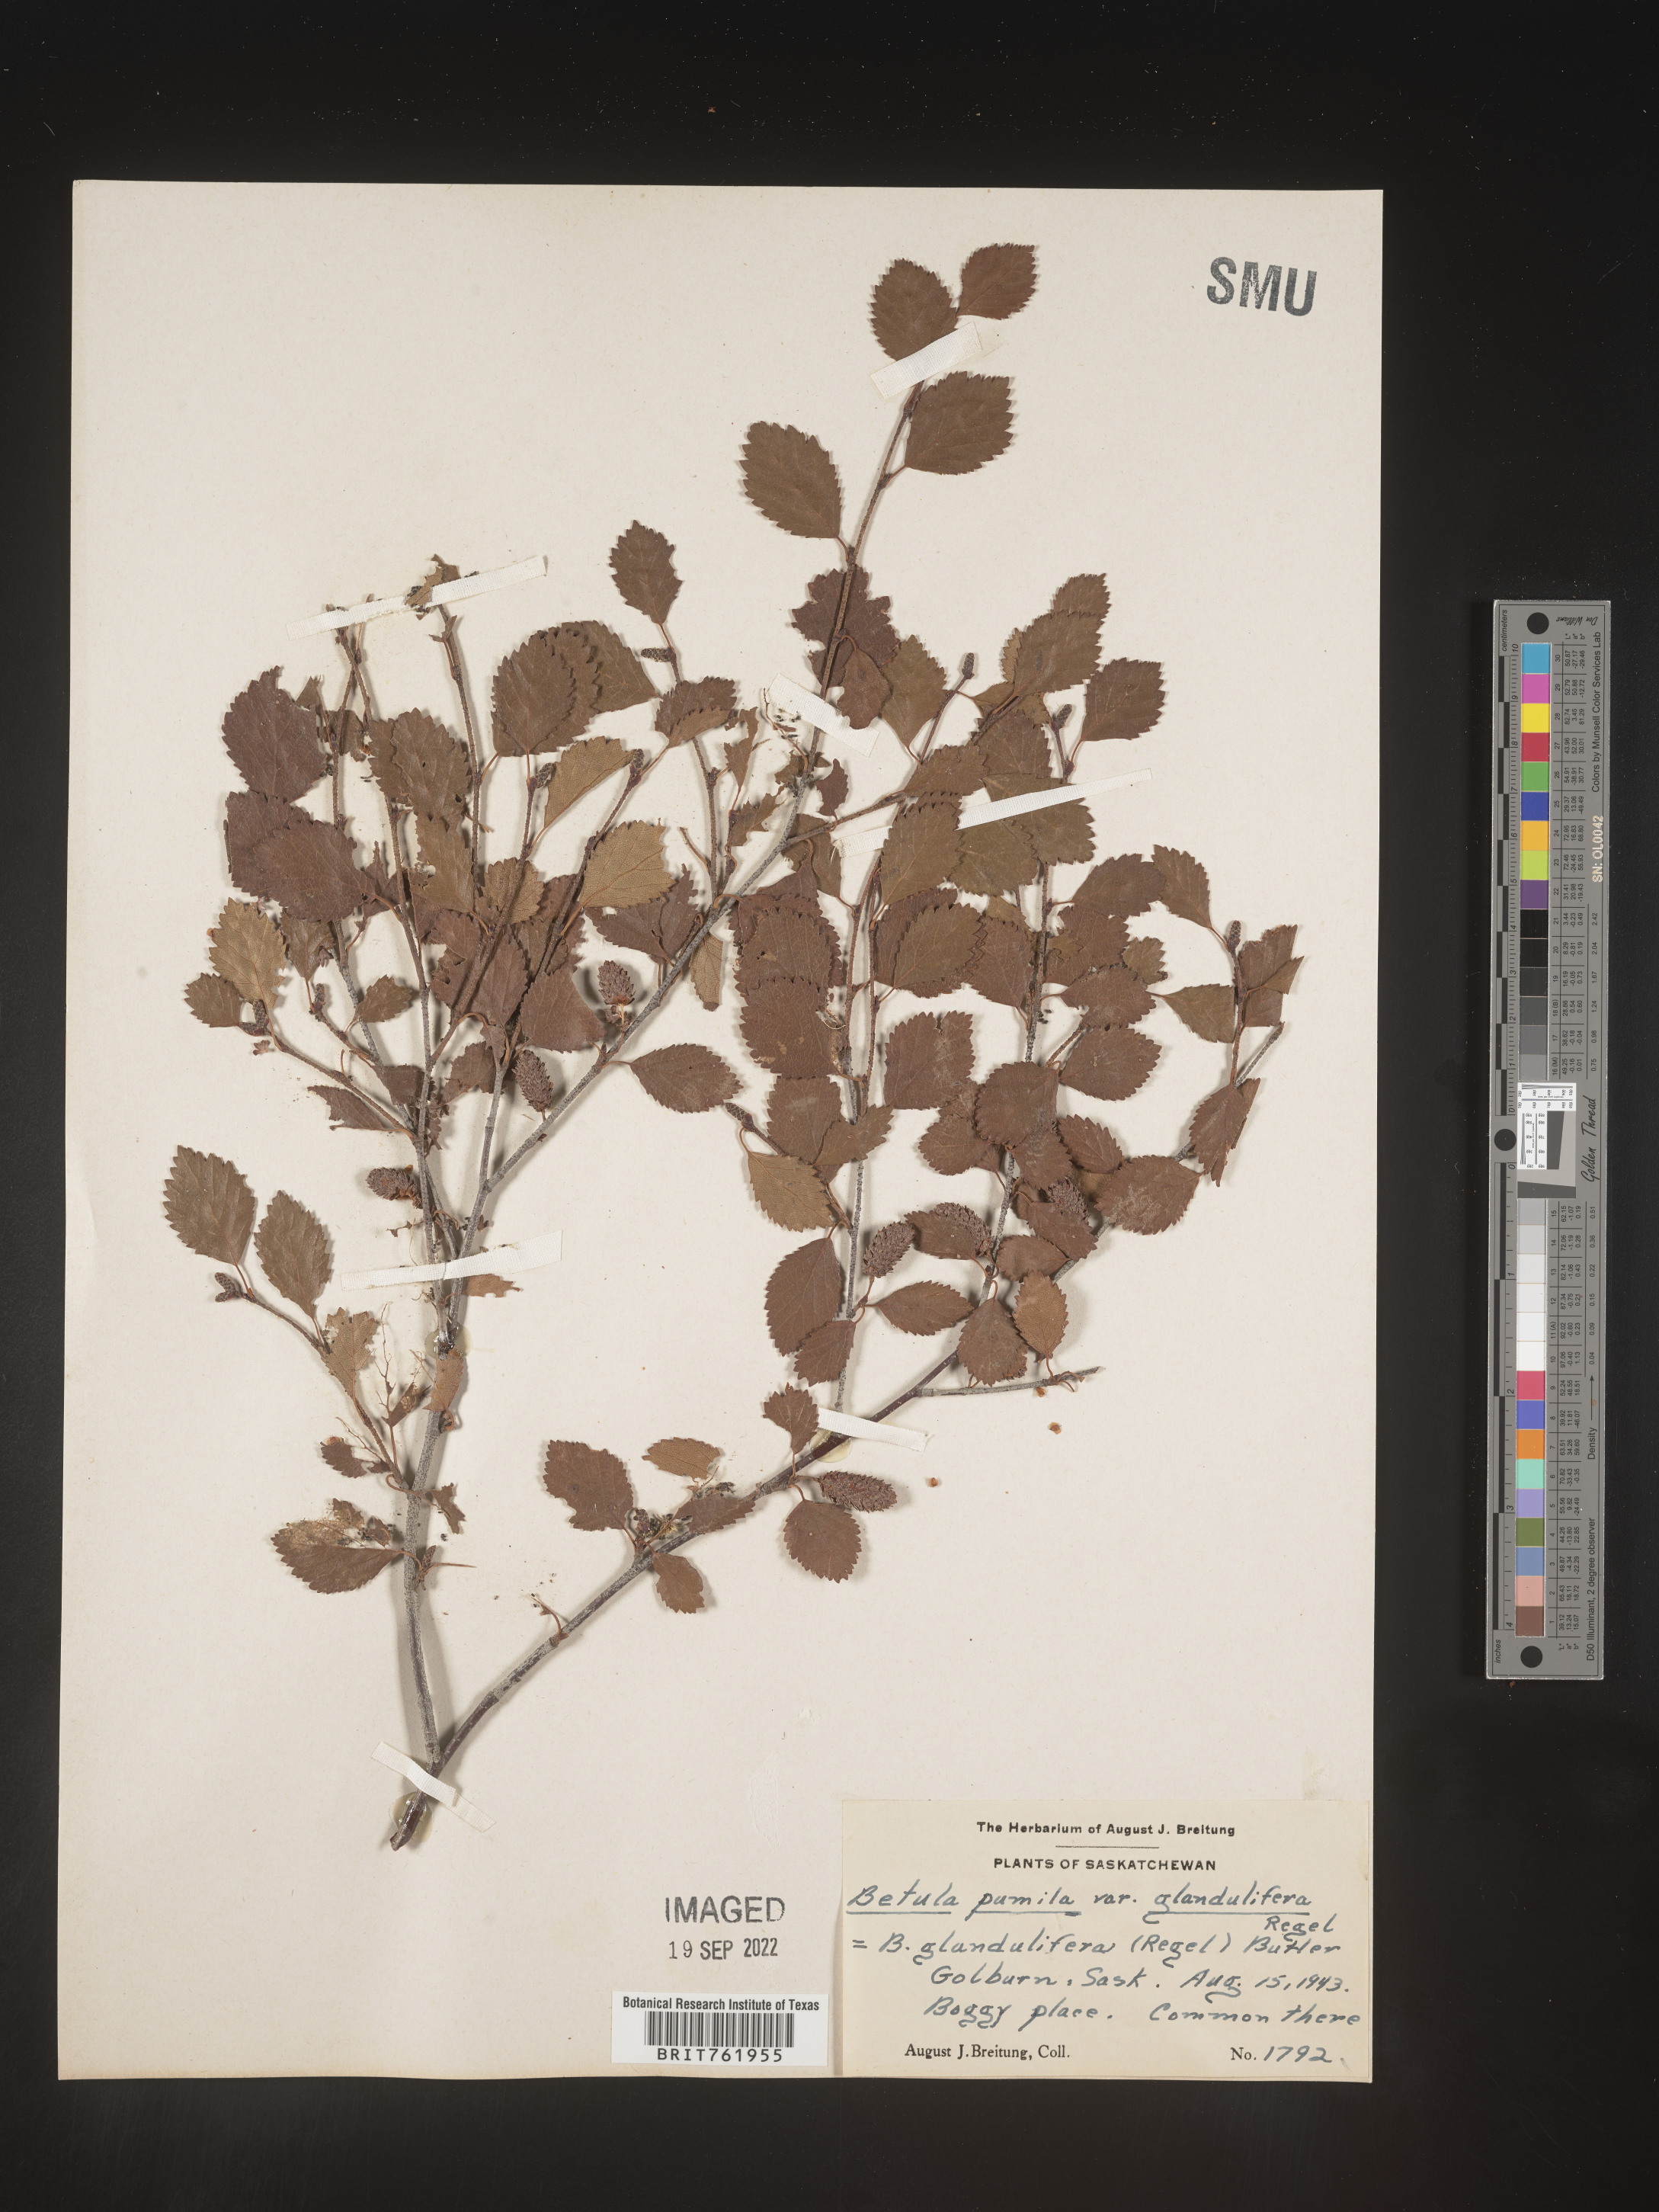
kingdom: Plantae
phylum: Tracheophyta
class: Magnoliopsida
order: Fagales
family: Betulaceae
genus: Betula
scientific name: Betula pumila
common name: Bog birch
